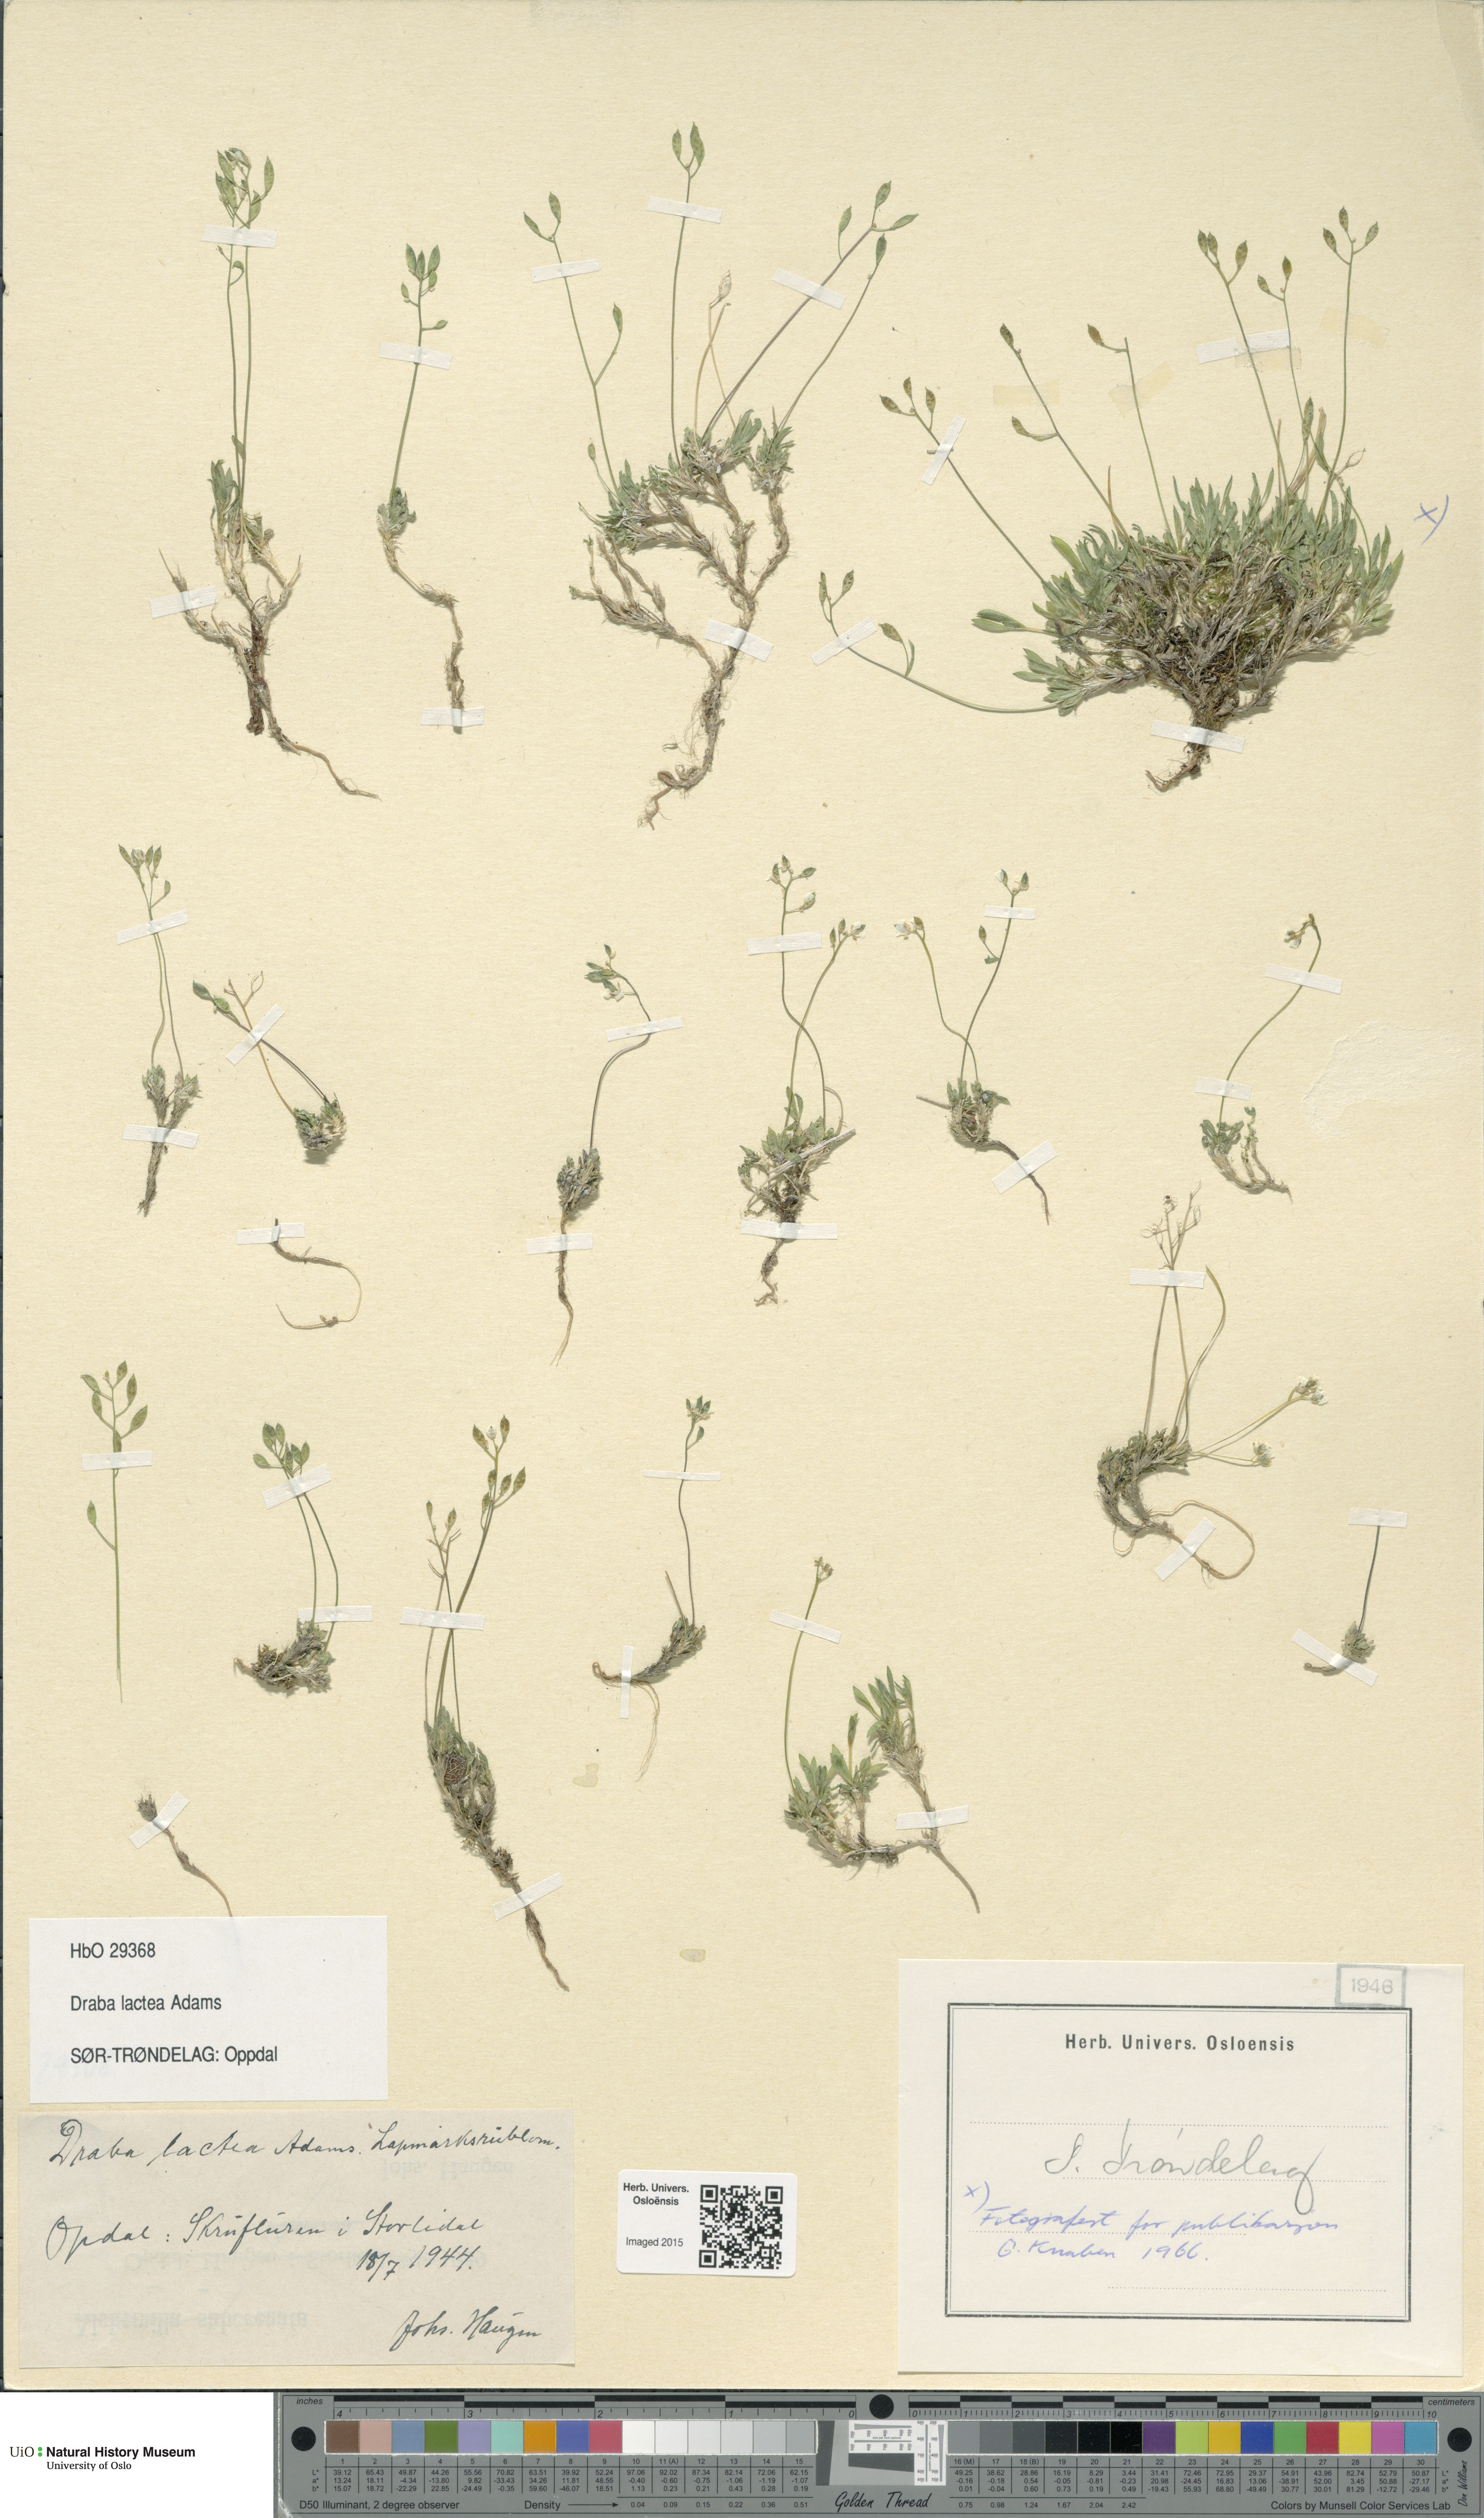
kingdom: Plantae
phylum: Tracheophyta
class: Magnoliopsida
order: Brassicales
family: Brassicaceae
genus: Draba
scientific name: Draba lactea
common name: Milky draba
